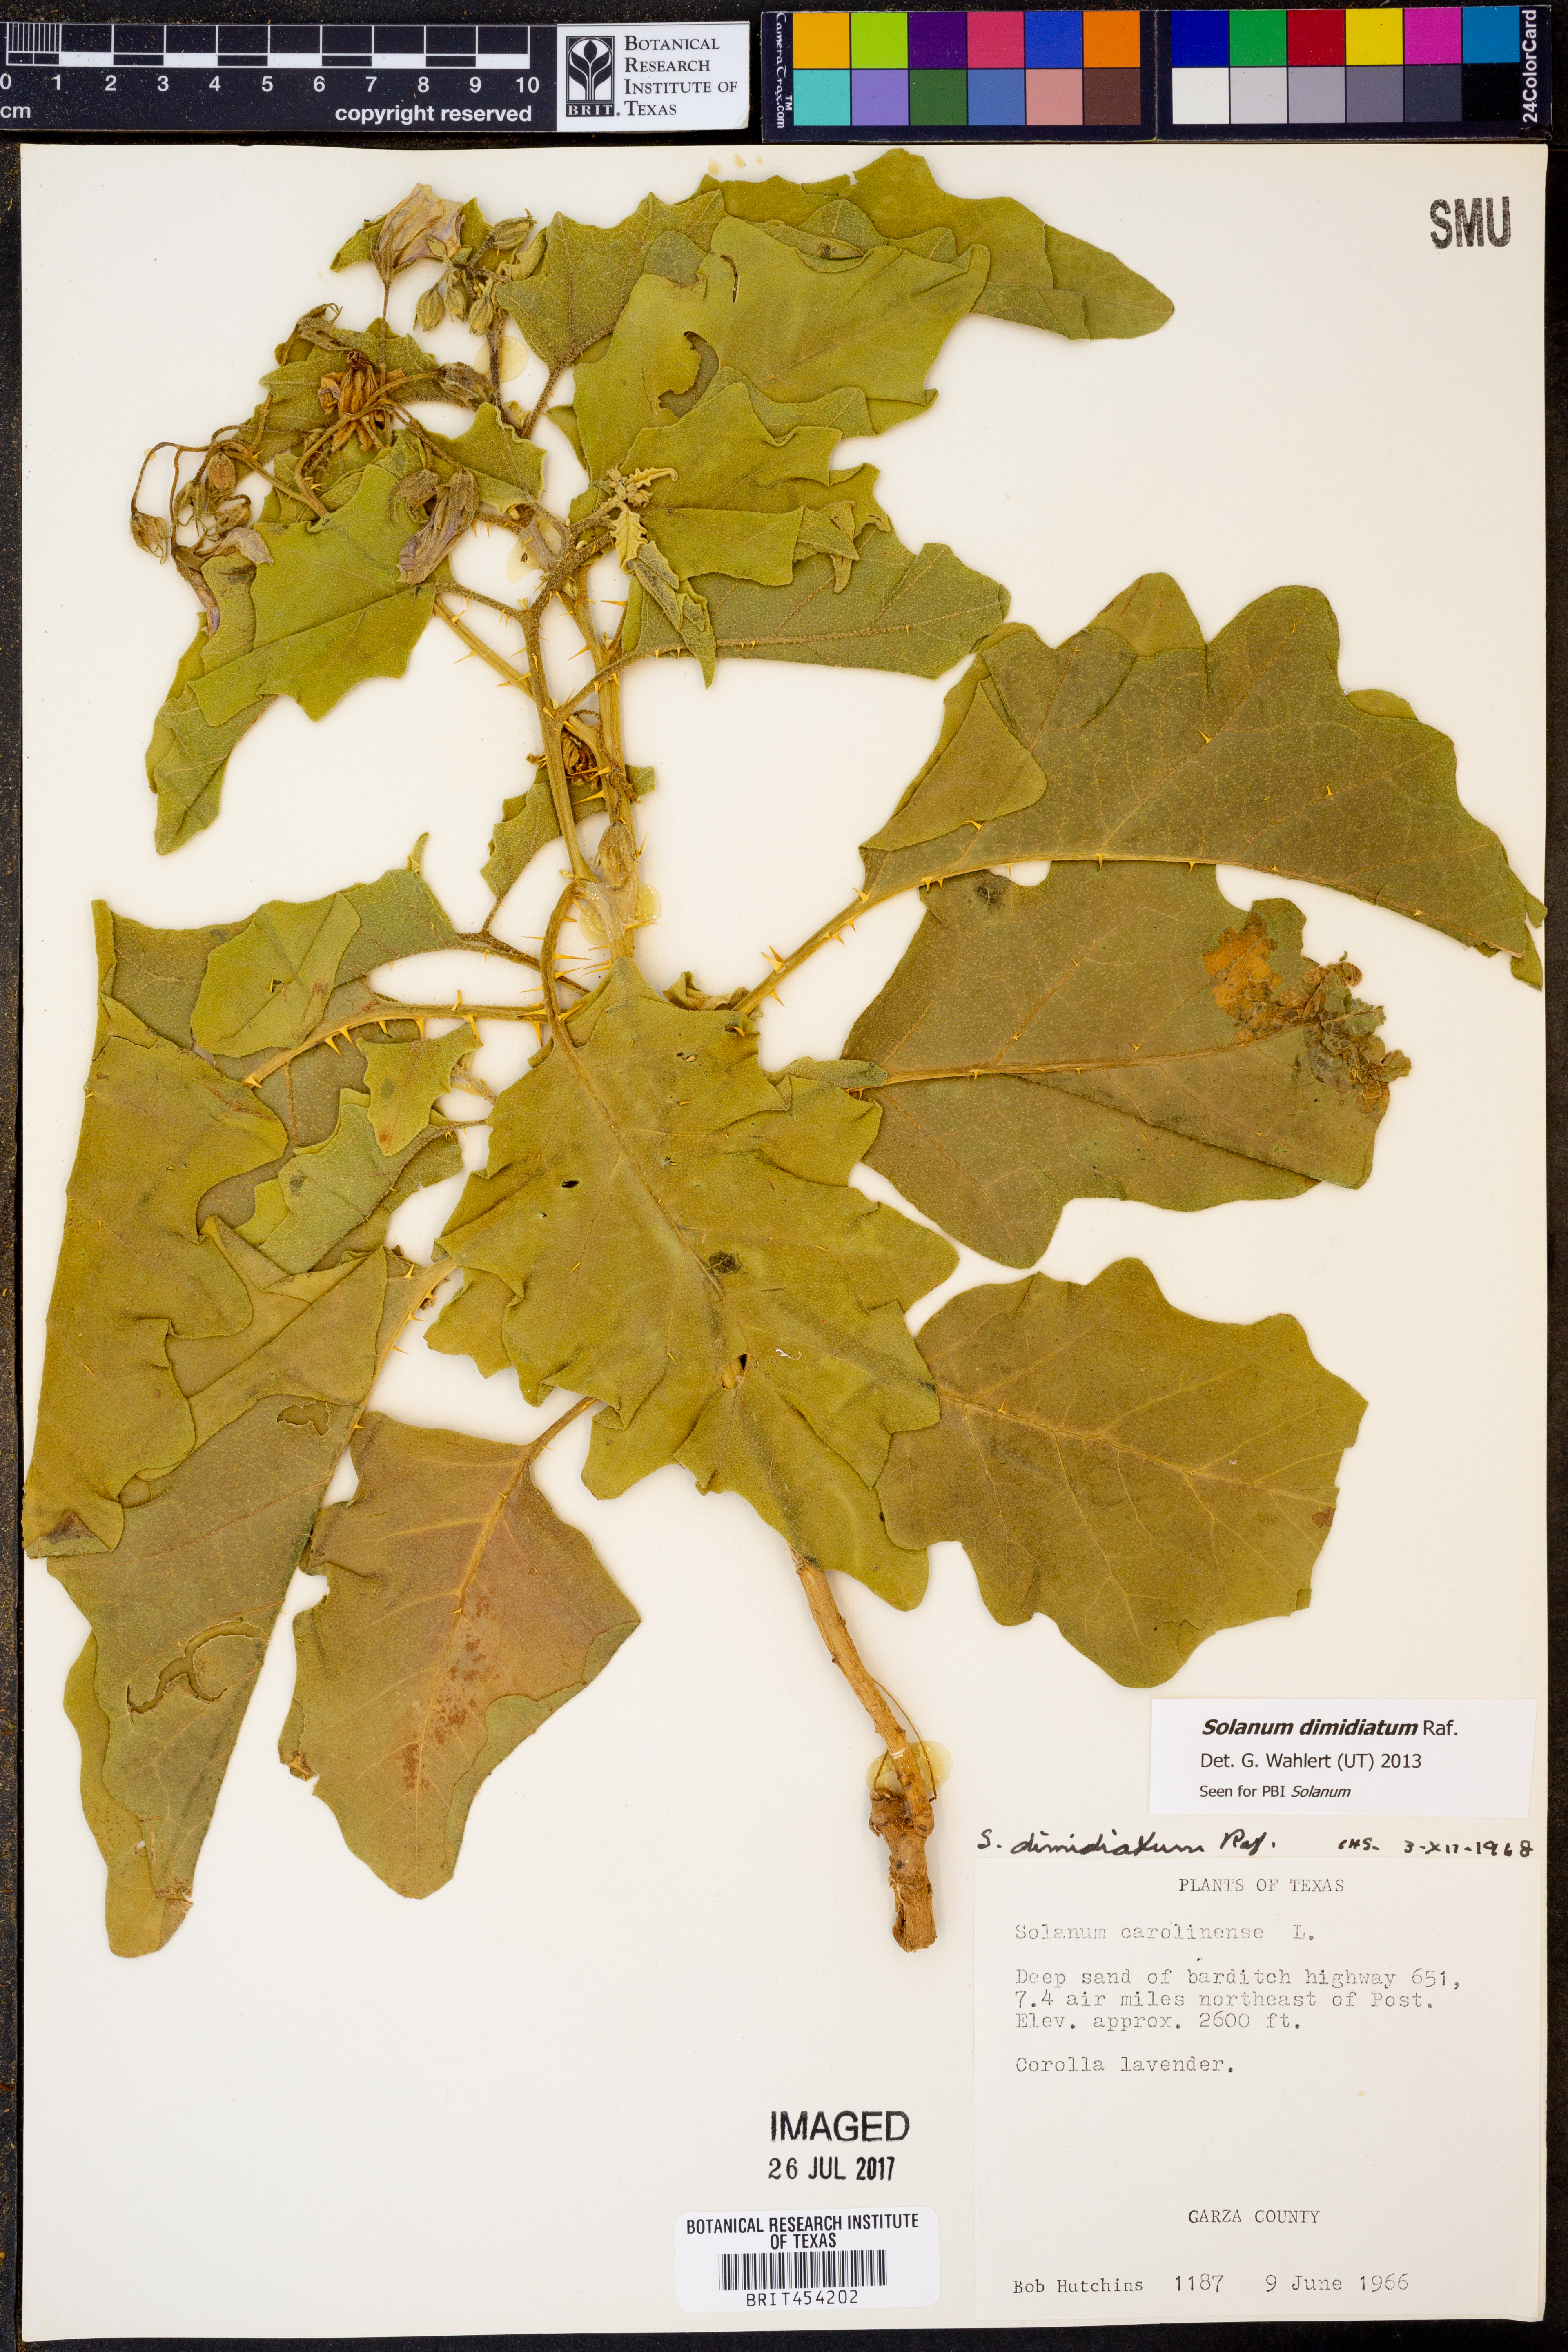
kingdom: Plantae
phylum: Tracheophyta
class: Magnoliopsida
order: Solanales
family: Solanaceae
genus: Solanum
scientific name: Solanum carolinense
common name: Horse-nettle
